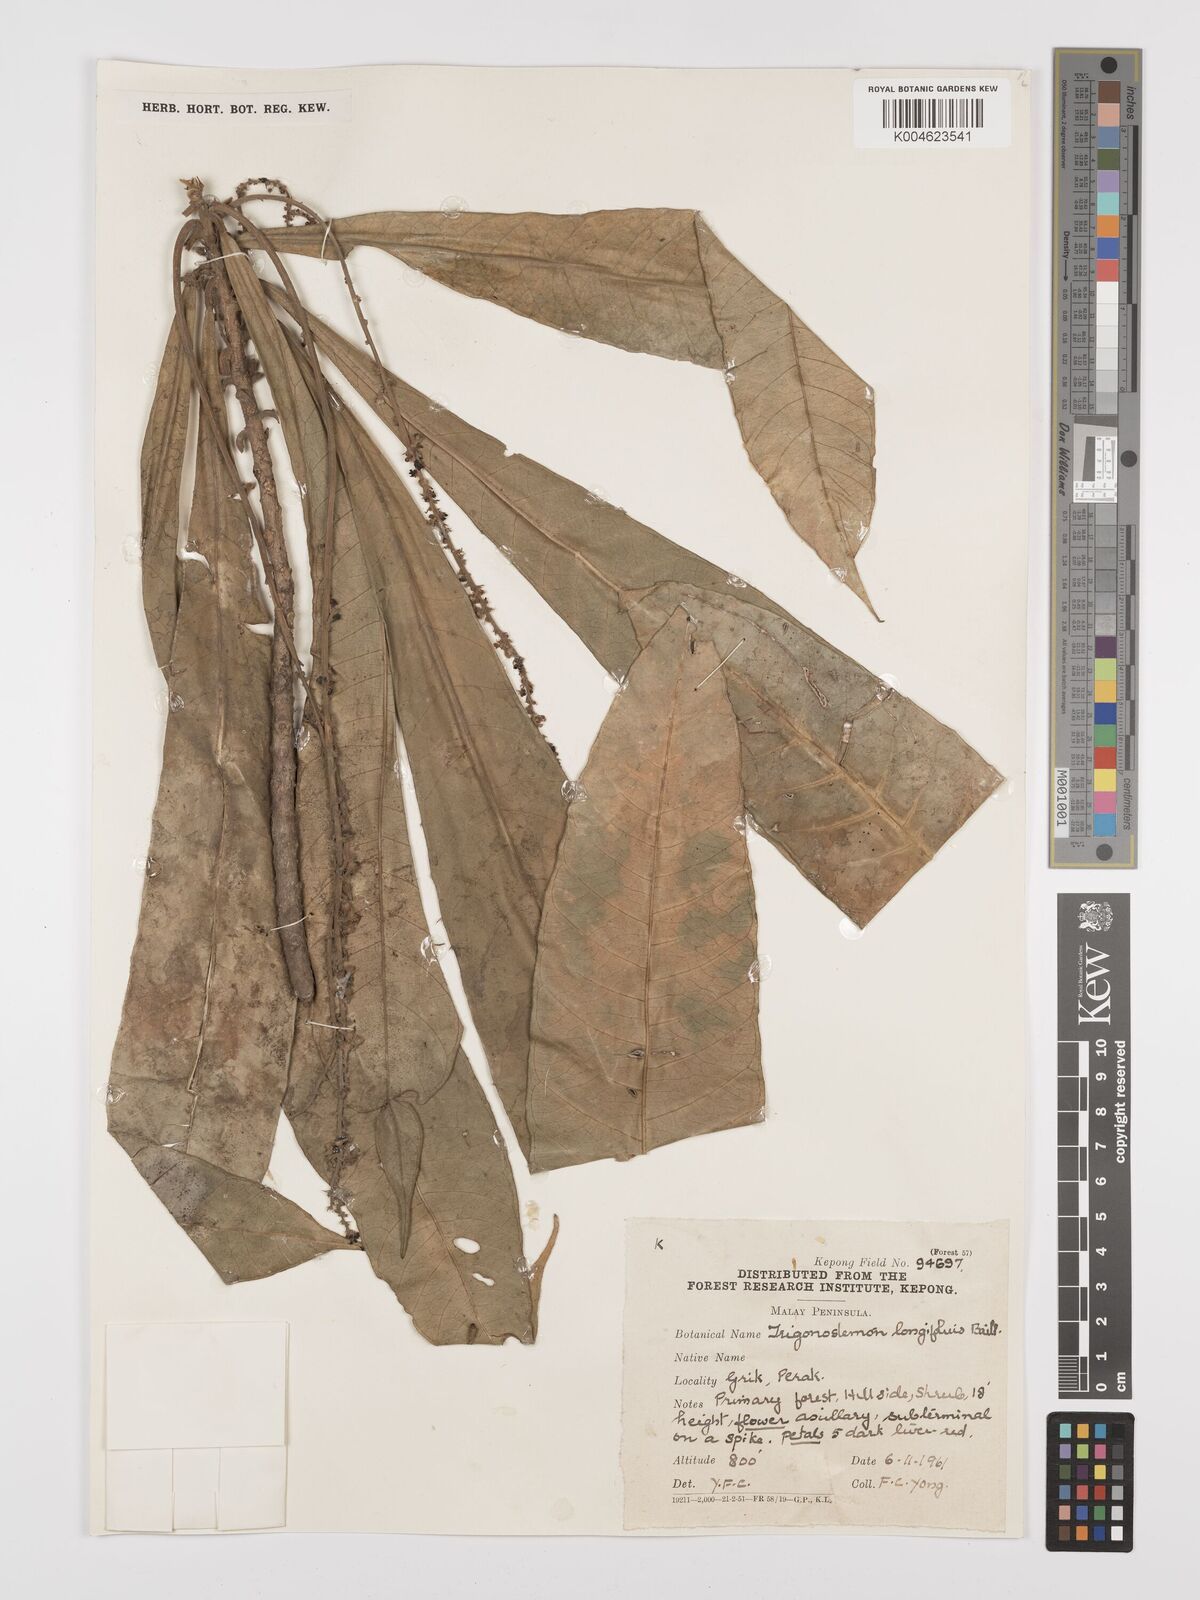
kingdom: Plantae
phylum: Tracheophyta
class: Magnoliopsida
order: Malpighiales
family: Euphorbiaceae
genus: Trigonostemon
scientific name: Trigonostemon longifolius
